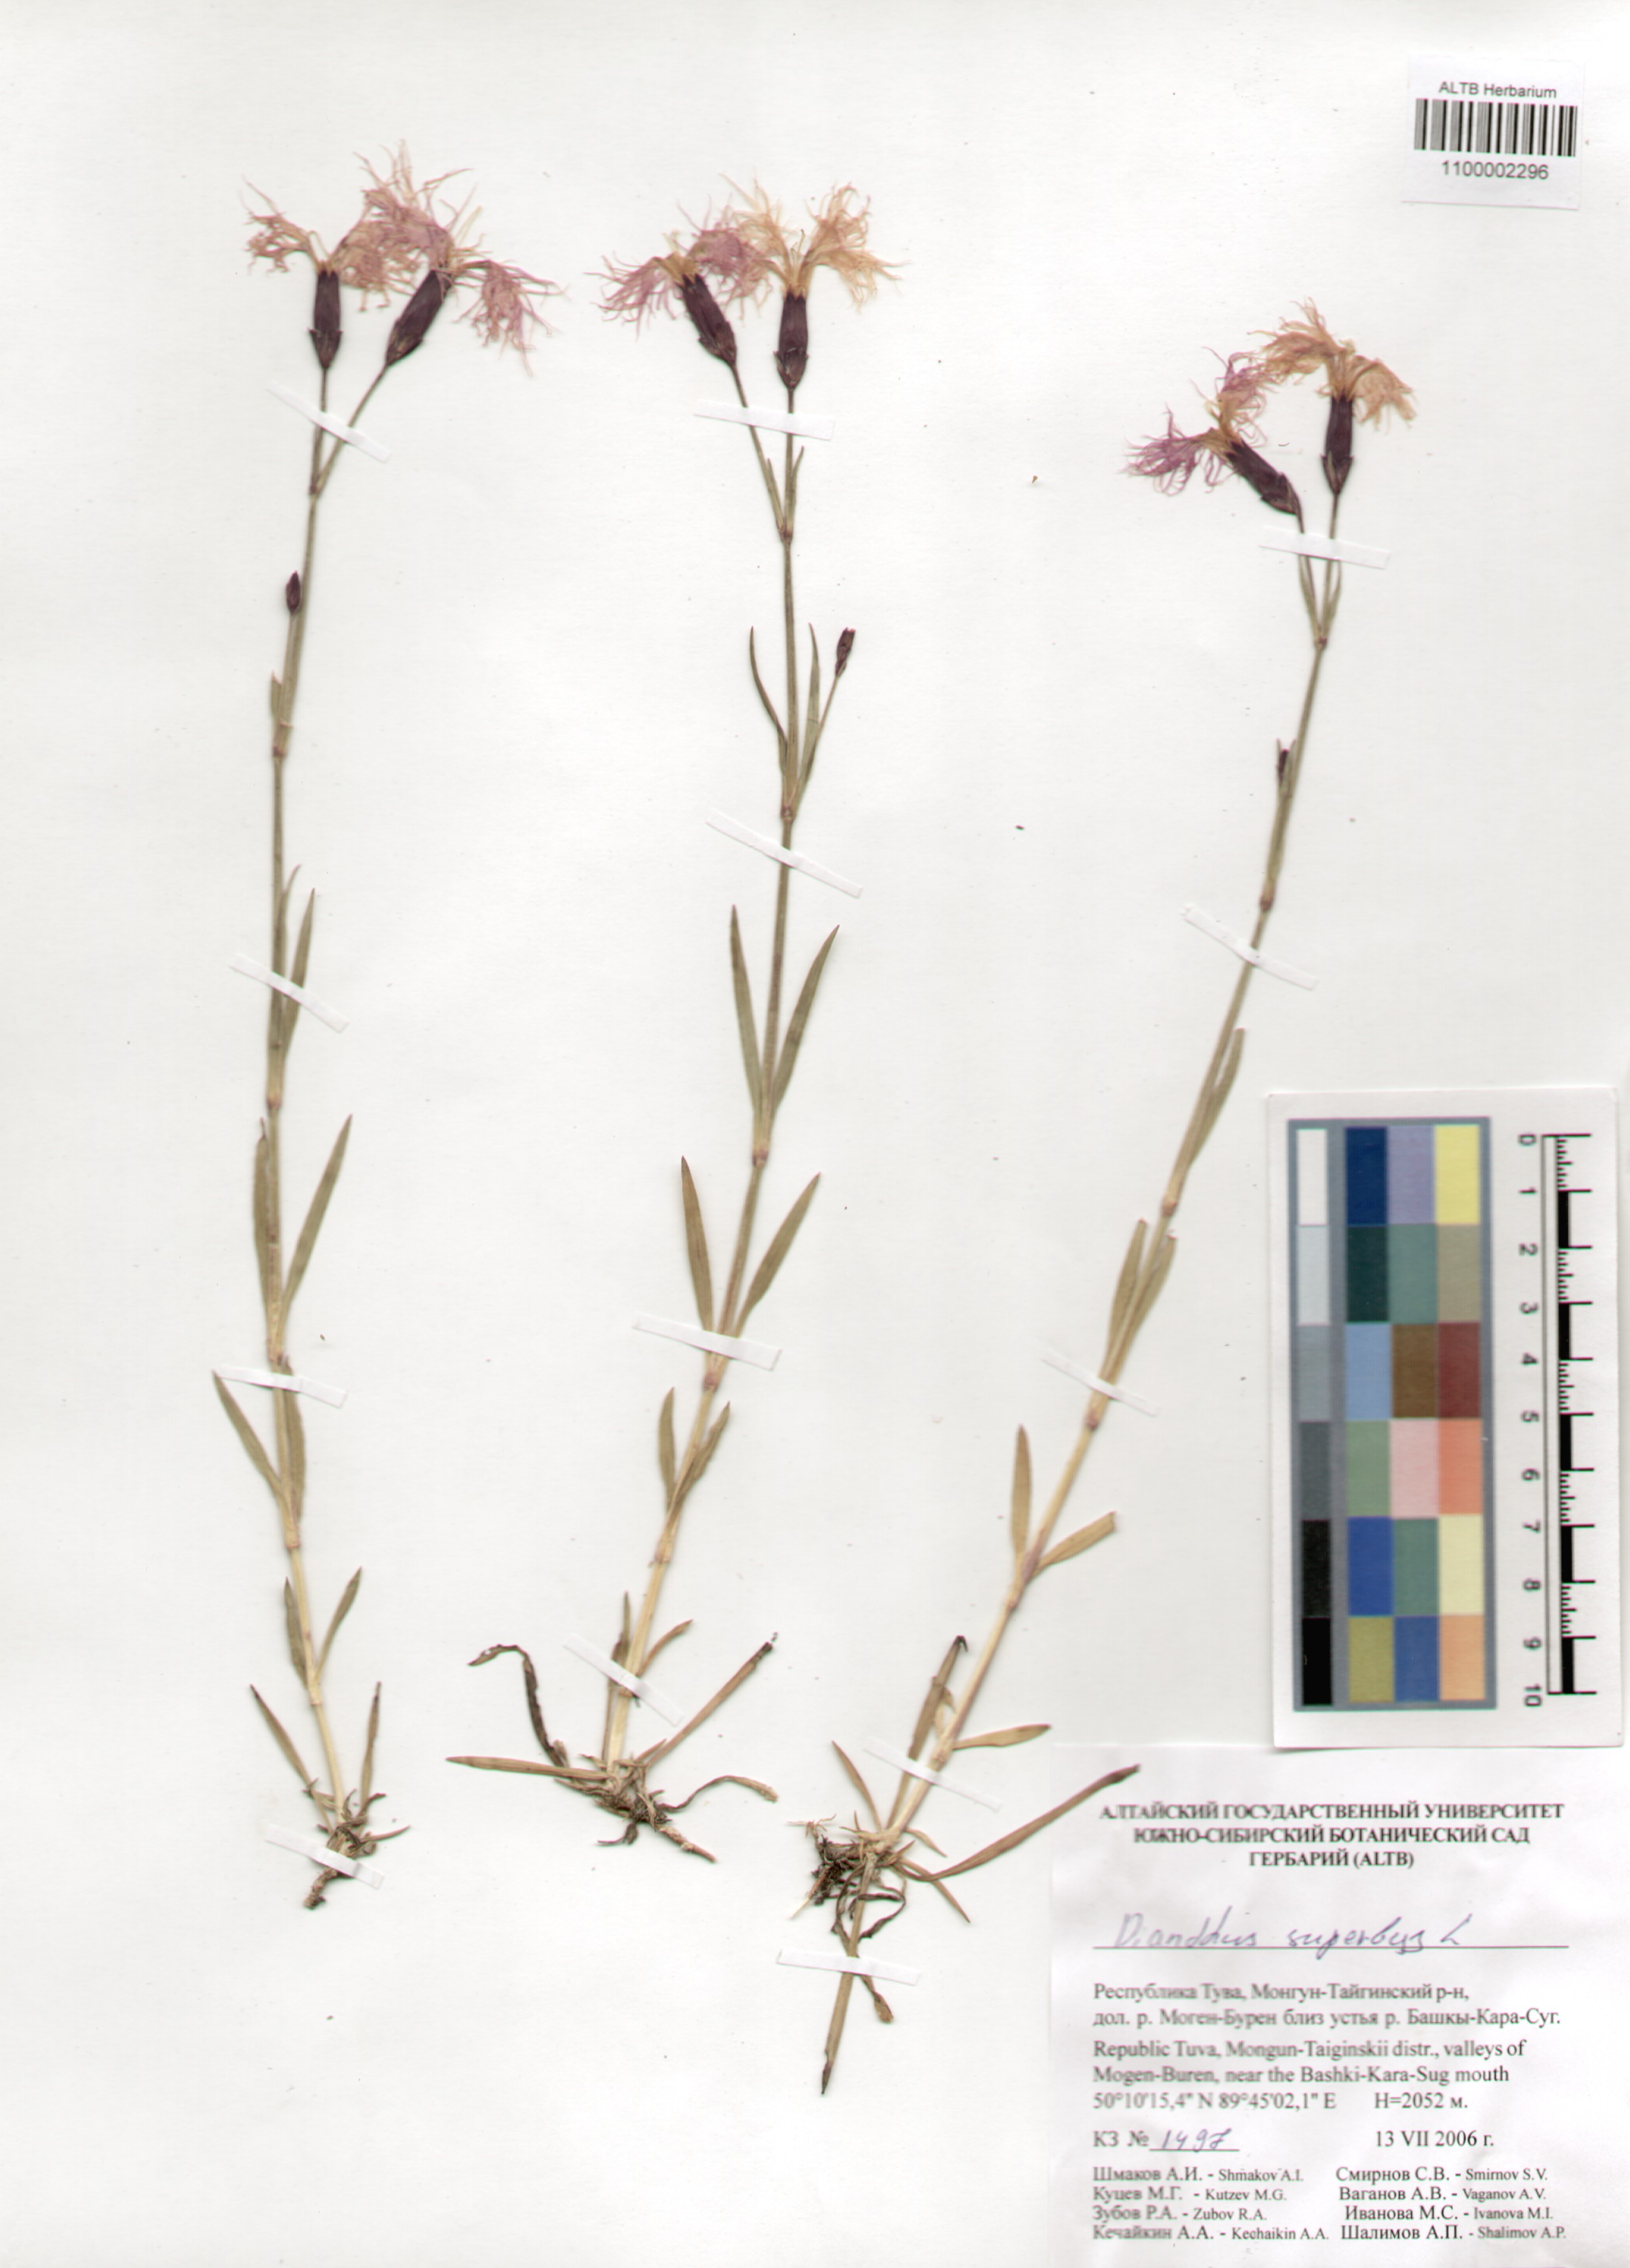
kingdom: Plantae
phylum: Tracheophyta
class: Magnoliopsida
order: Caryophyllales
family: Caryophyllaceae
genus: Dianthus
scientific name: Dianthus superbus
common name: Fringed pink
